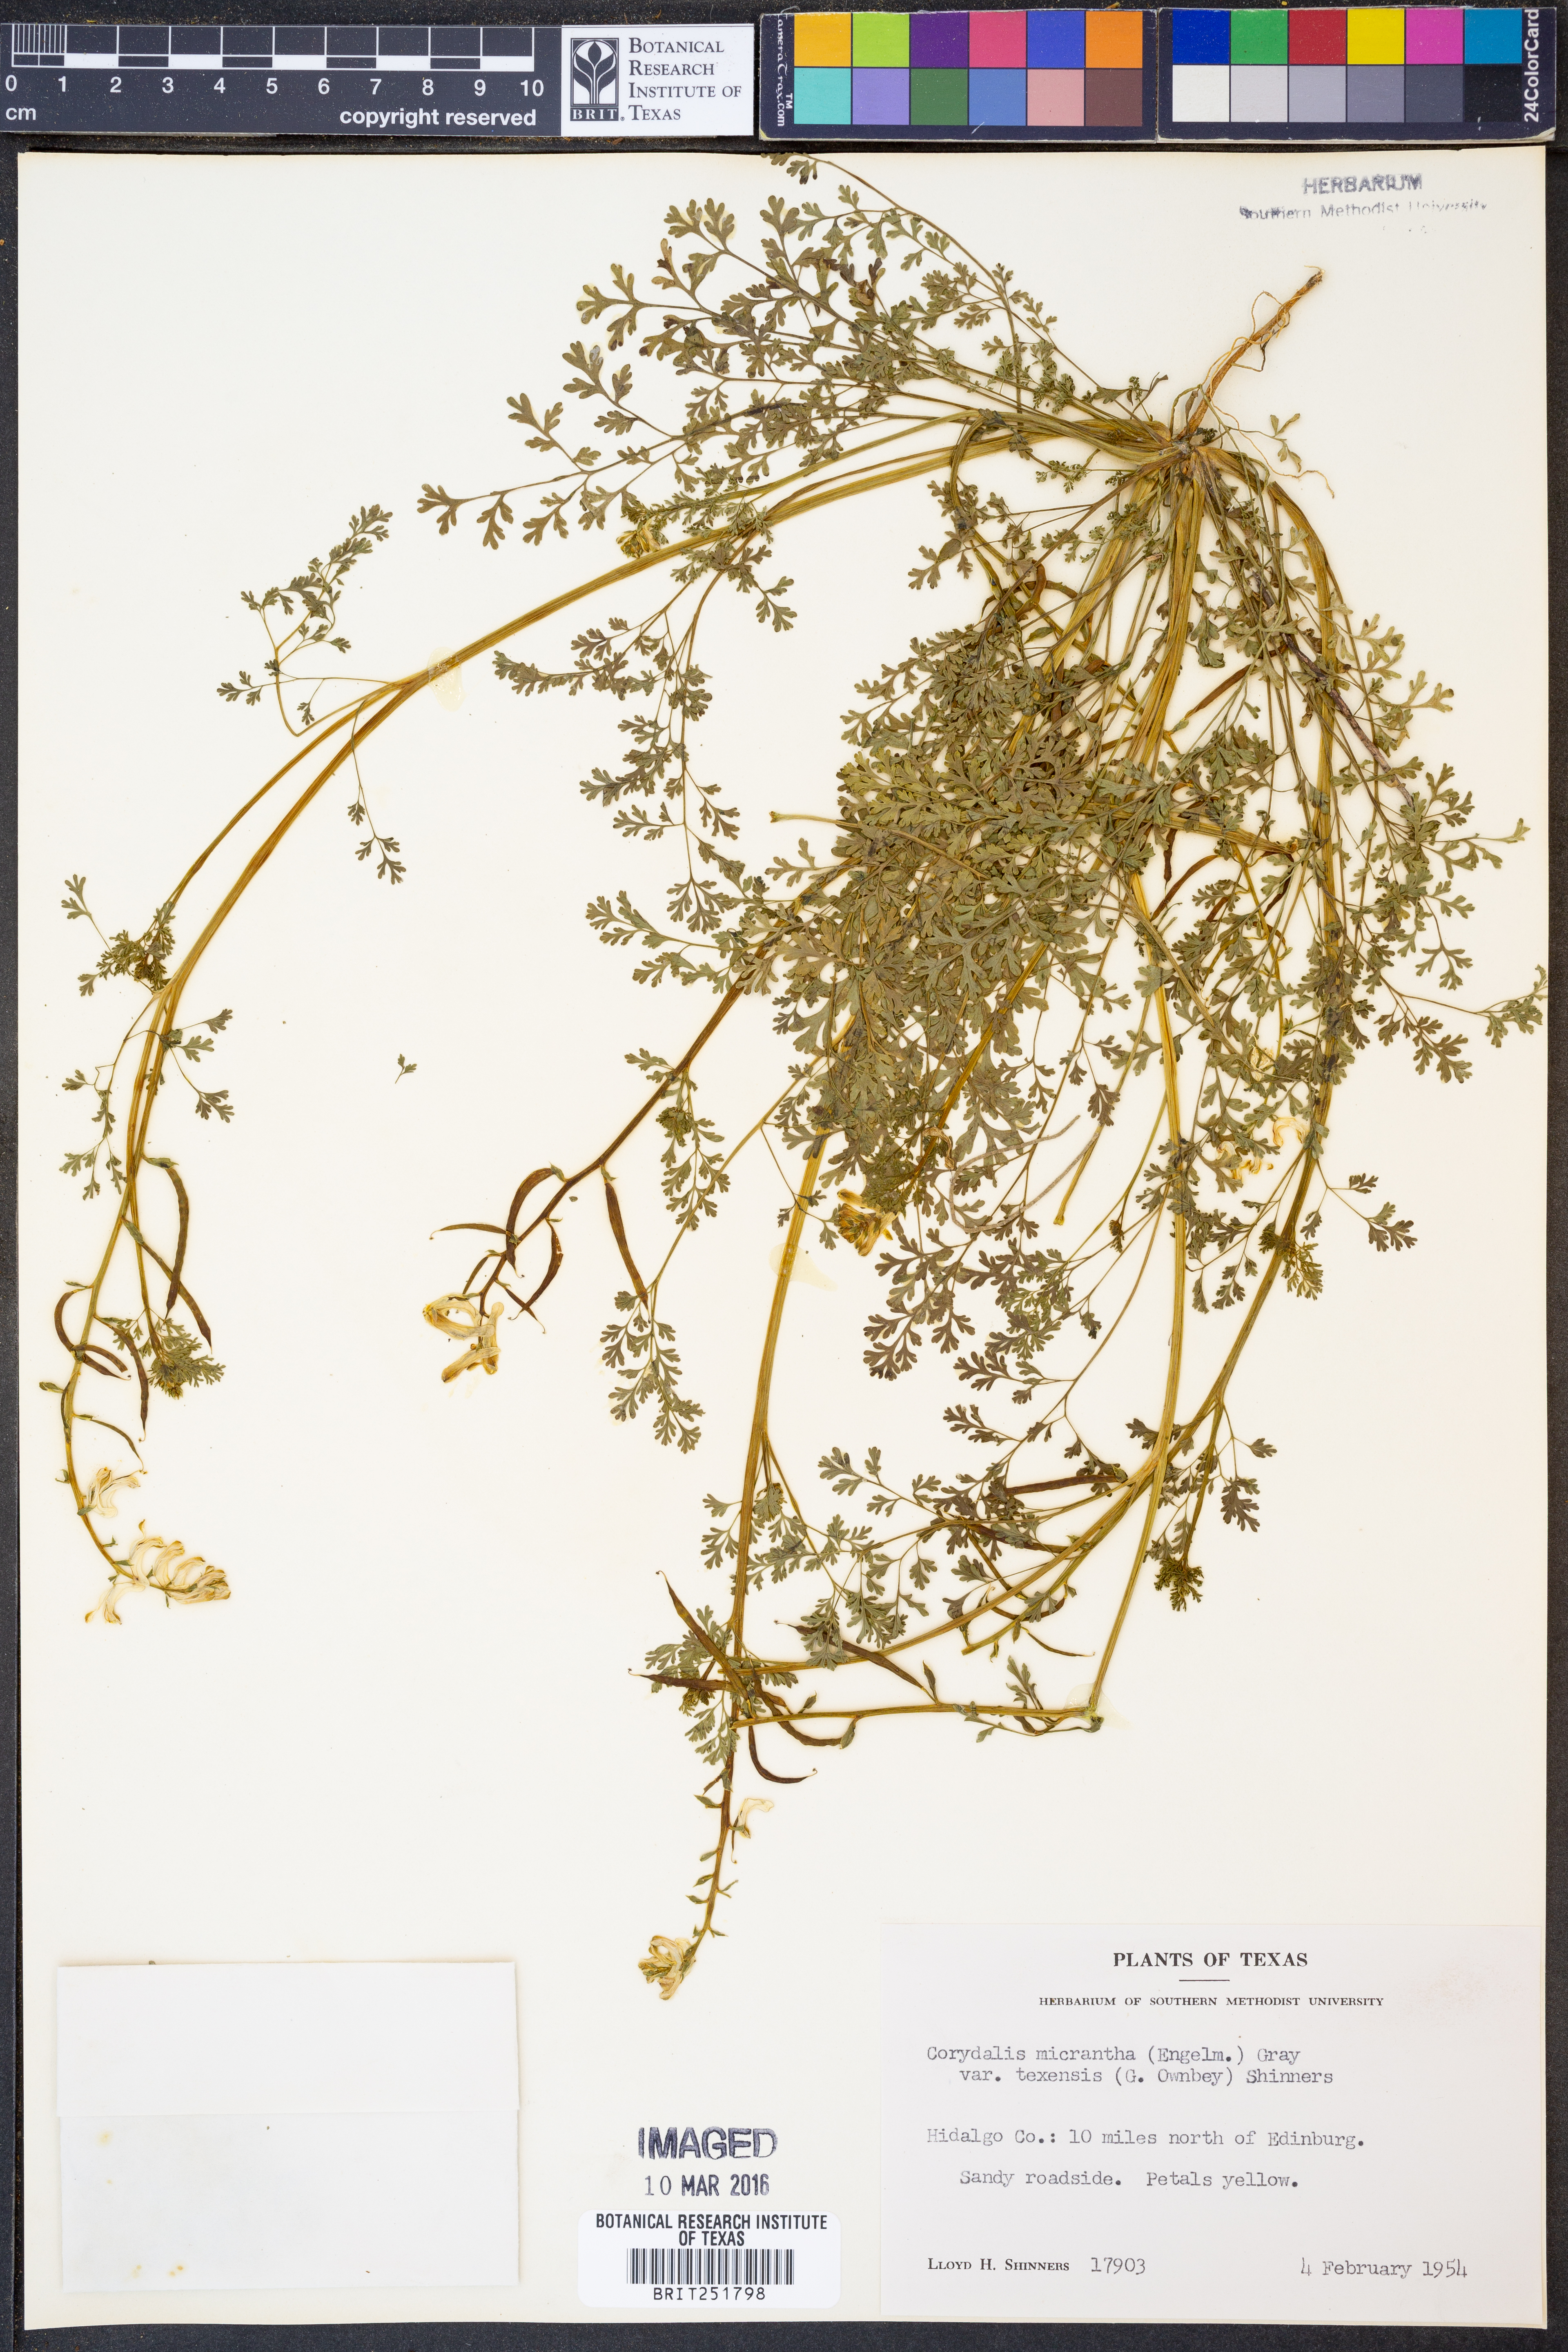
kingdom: Plantae
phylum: Tracheophyta
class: Magnoliopsida
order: Ranunculales
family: Papaveraceae
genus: Corydalis
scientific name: Corydalis micrantha
